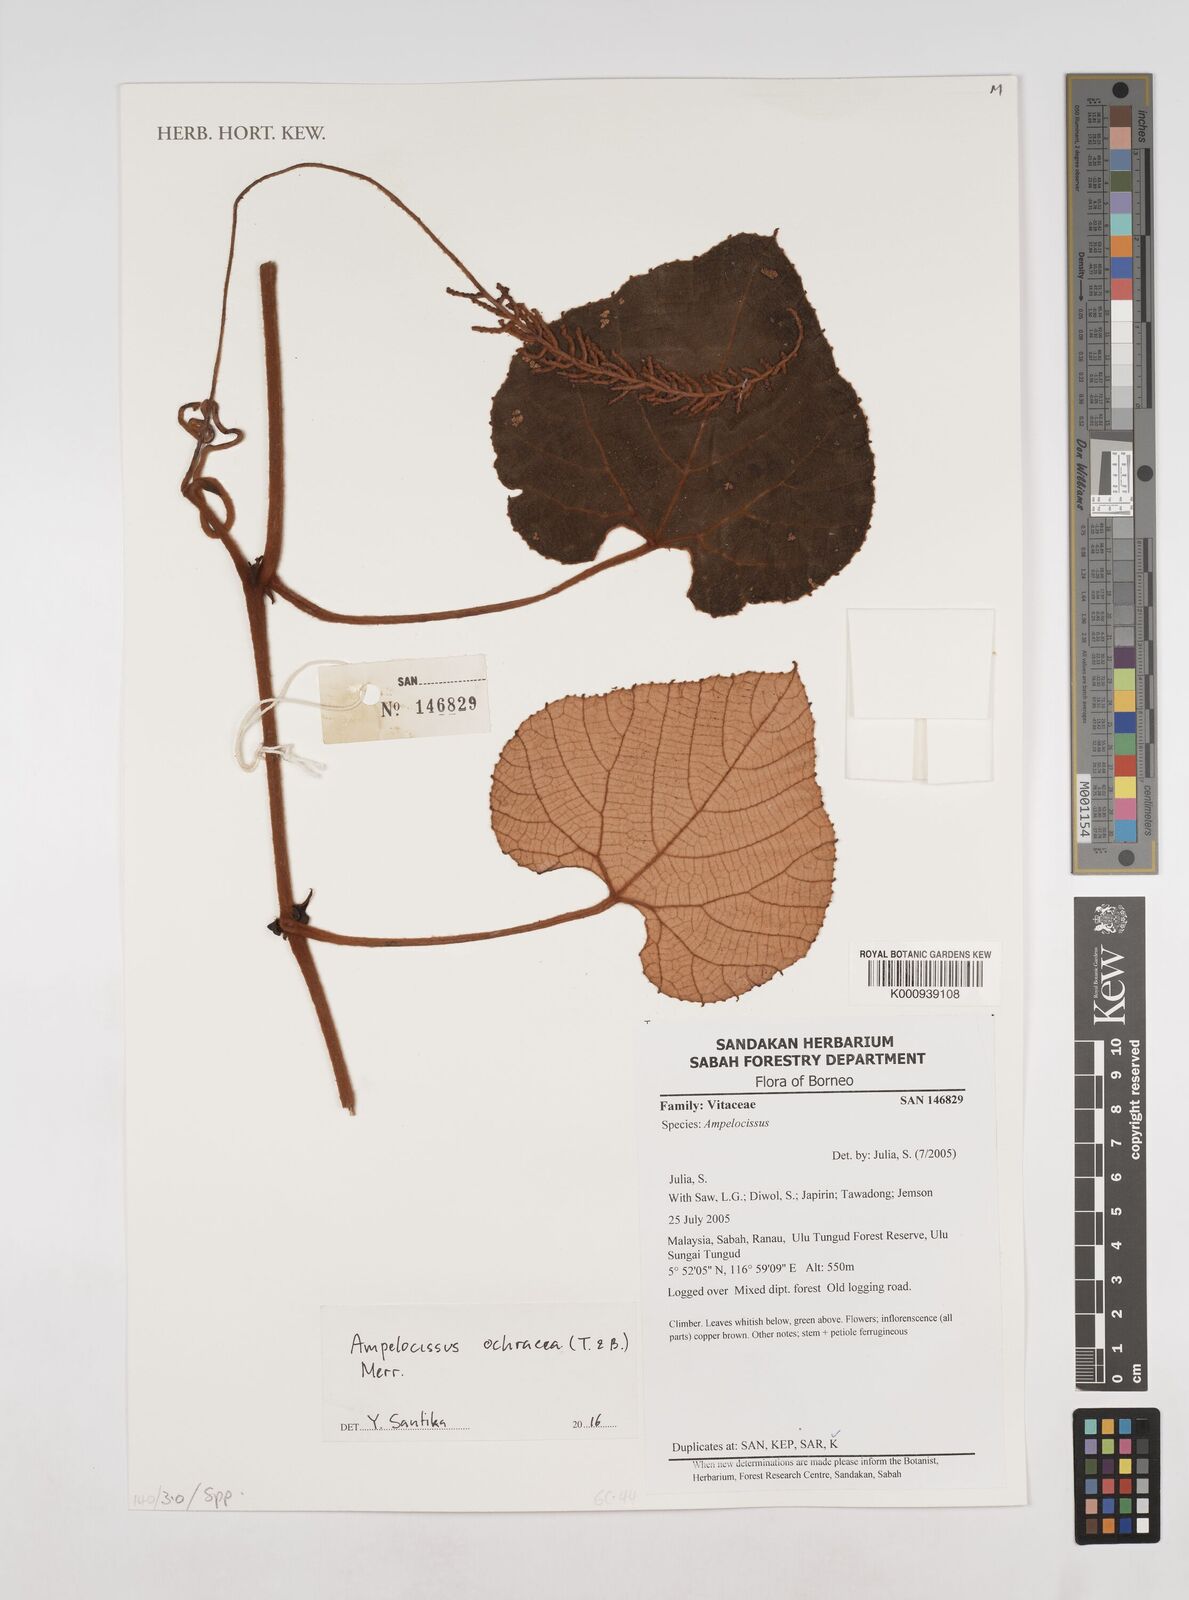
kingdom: Plantae
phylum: Tracheophyta
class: Magnoliopsida
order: Vitales
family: Vitaceae
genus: Ampelocissus
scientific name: Ampelocissus ochracea
